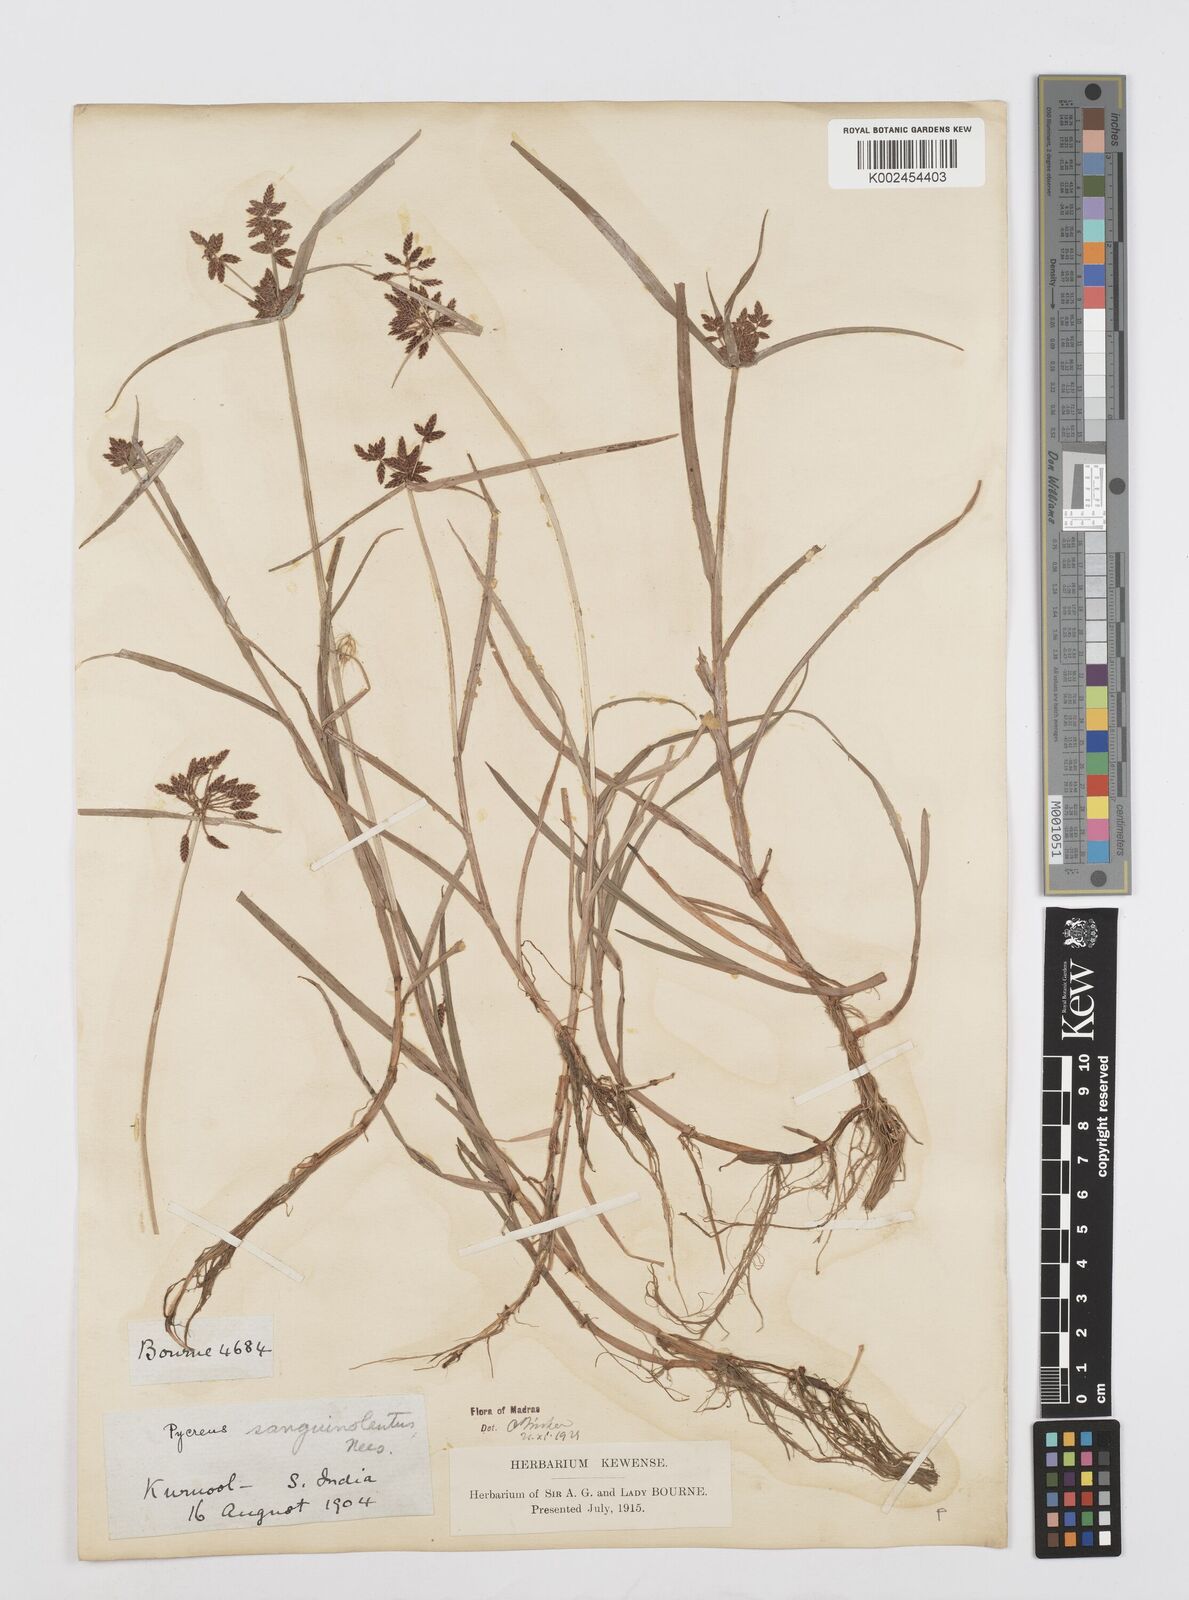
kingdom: Plantae
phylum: Tracheophyta
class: Liliopsida
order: Poales
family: Cyperaceae
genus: Cyperus
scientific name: Cyperus sanguinolentus
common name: Purpleglume flatsedge
